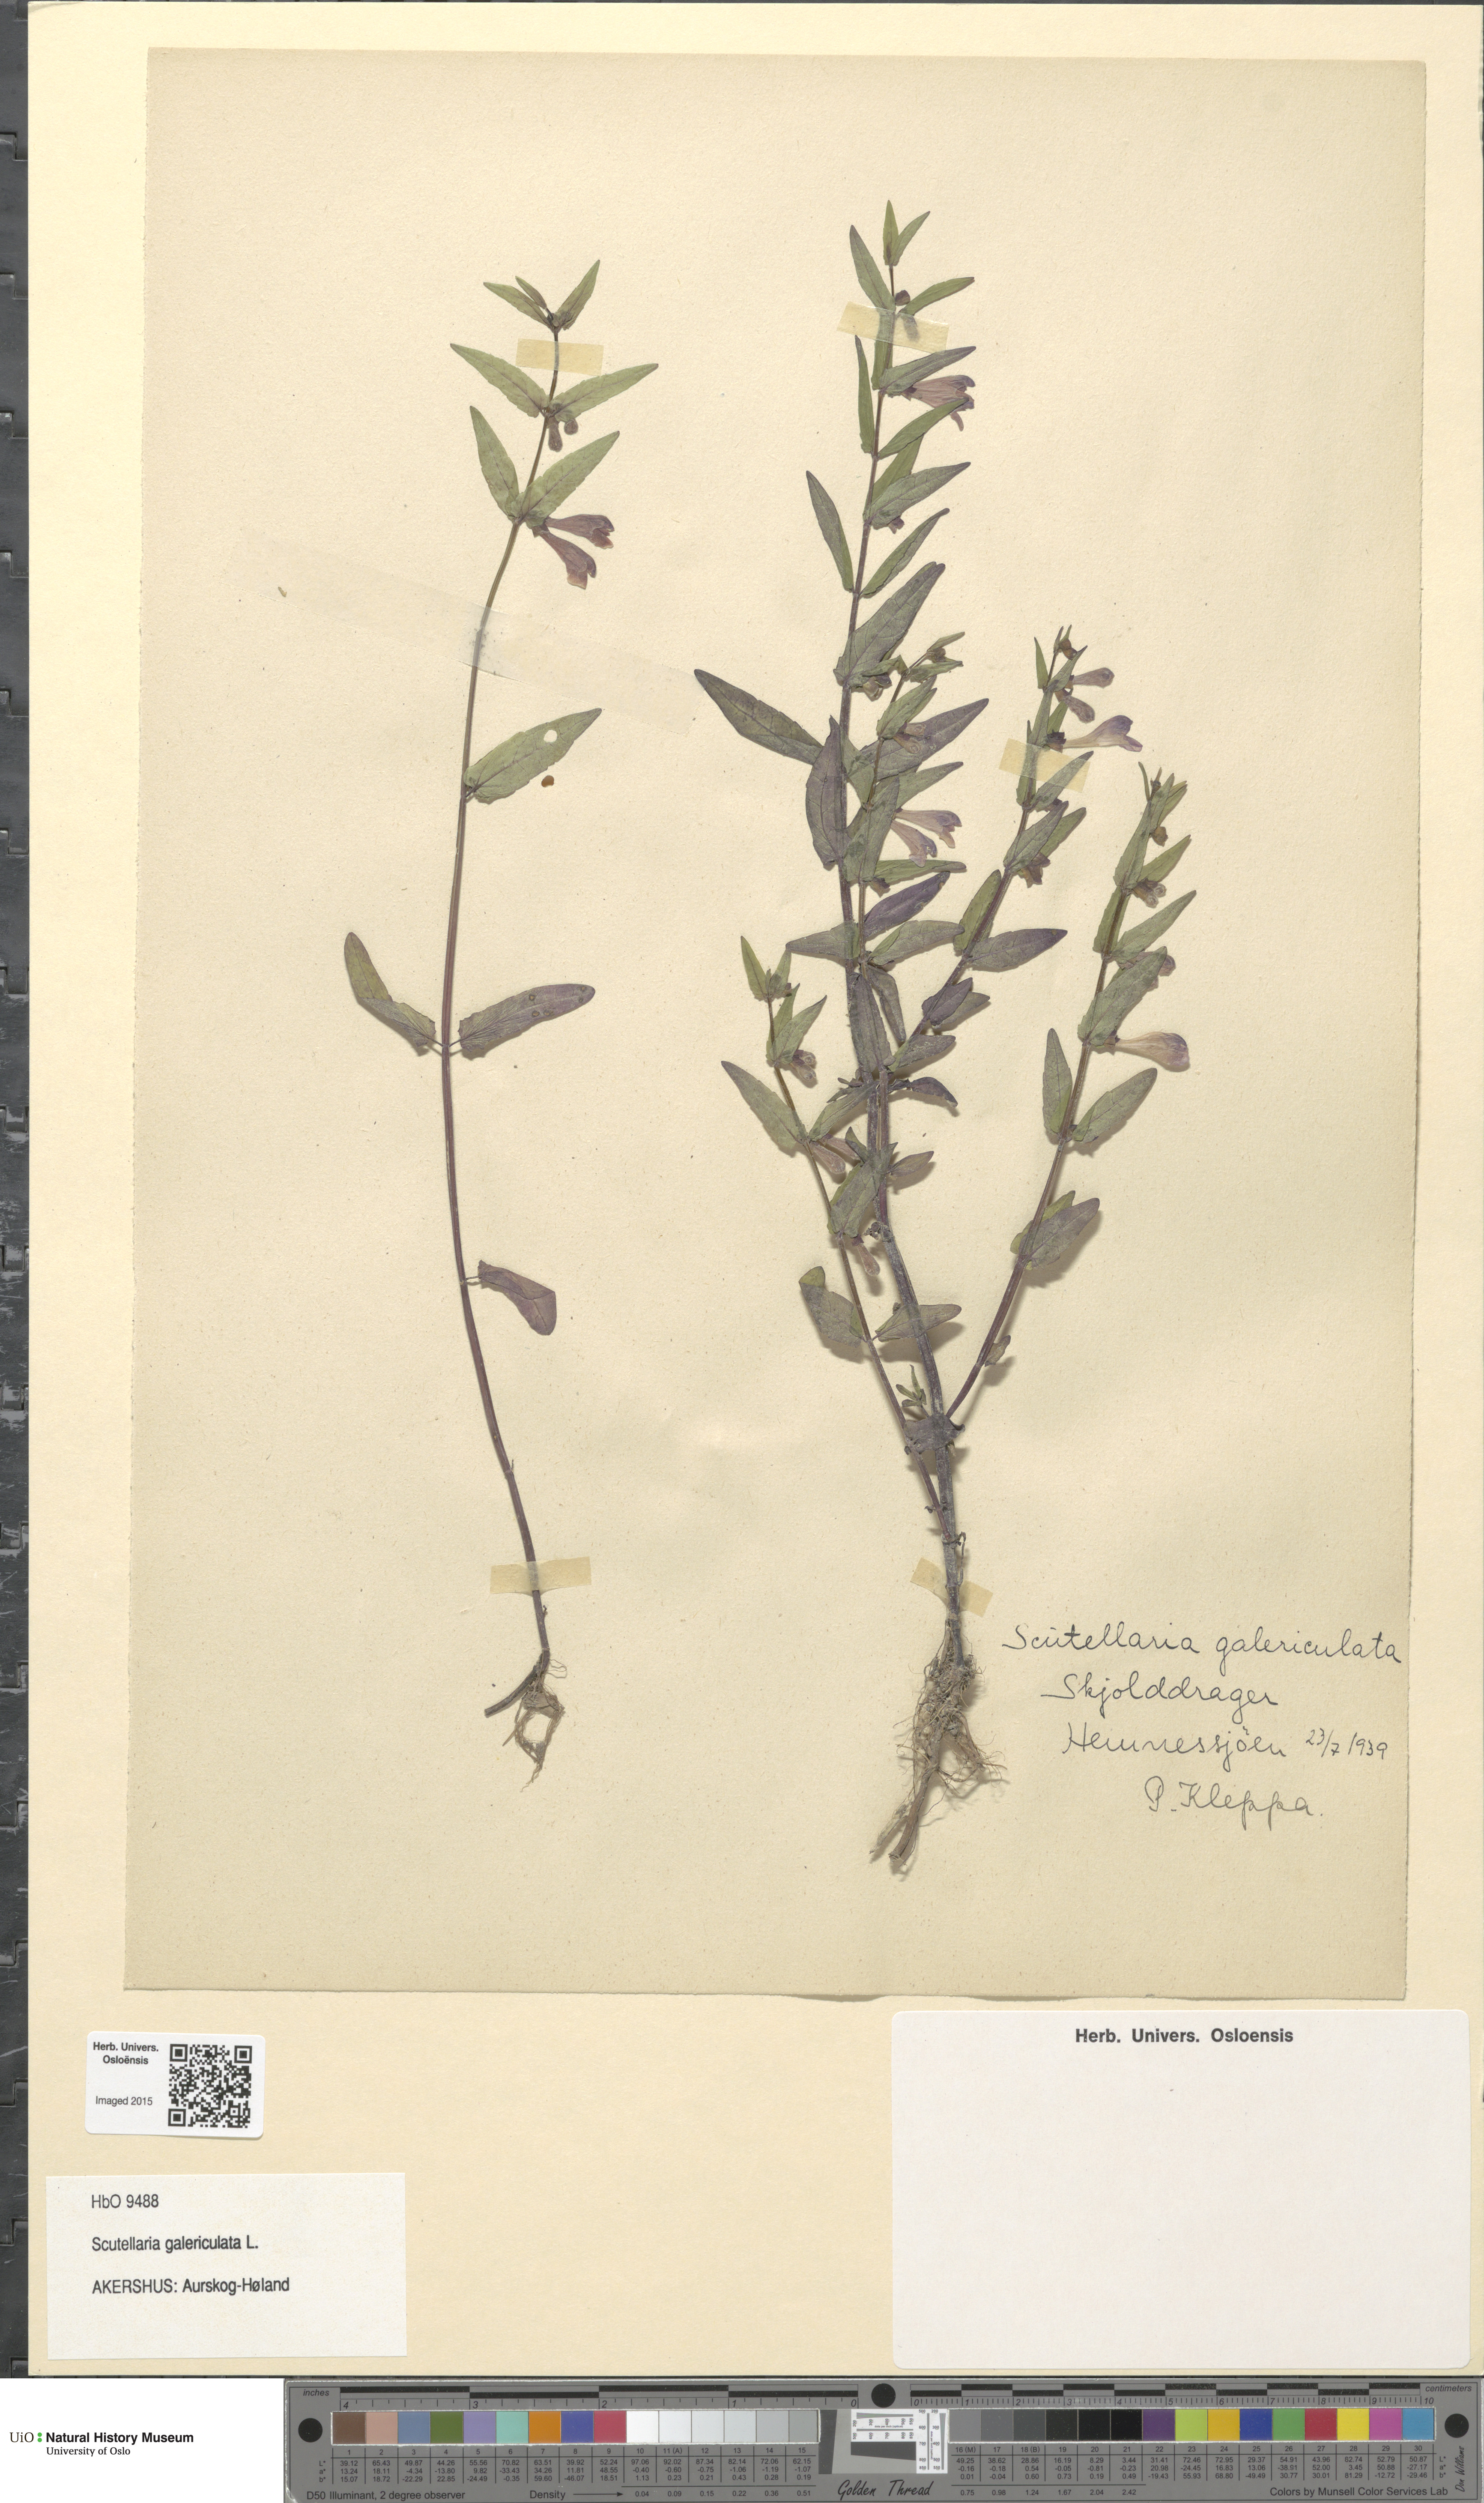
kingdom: Plantae
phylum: Tracheophyta
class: Magnoliopsida
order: Lamiales
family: Lamiaceae
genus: Scutellaria
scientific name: Scutellaria galericulata
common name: Skullcap
